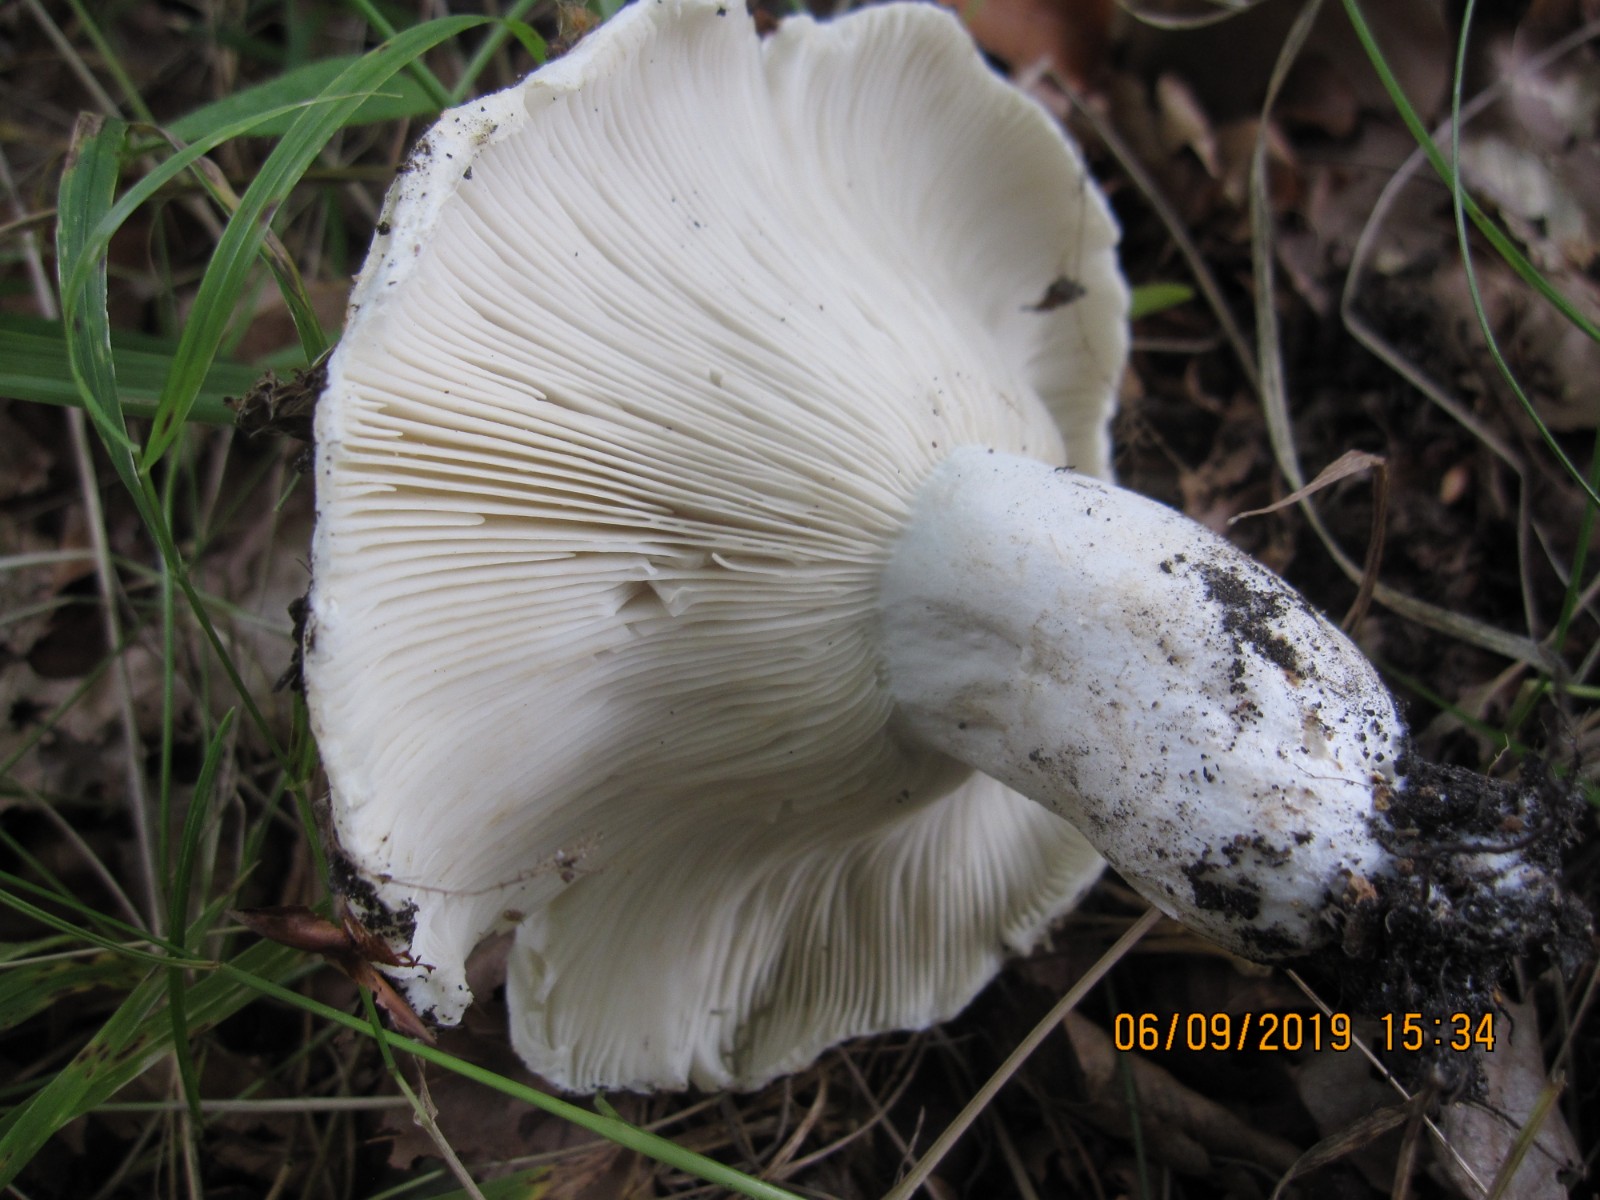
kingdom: Fungi
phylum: Basidiomycota
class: Agaricomycetes
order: Russulales
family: Russulaceae
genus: Russula
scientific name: Russula chloroides
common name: grønhalset tragt-skørhat
